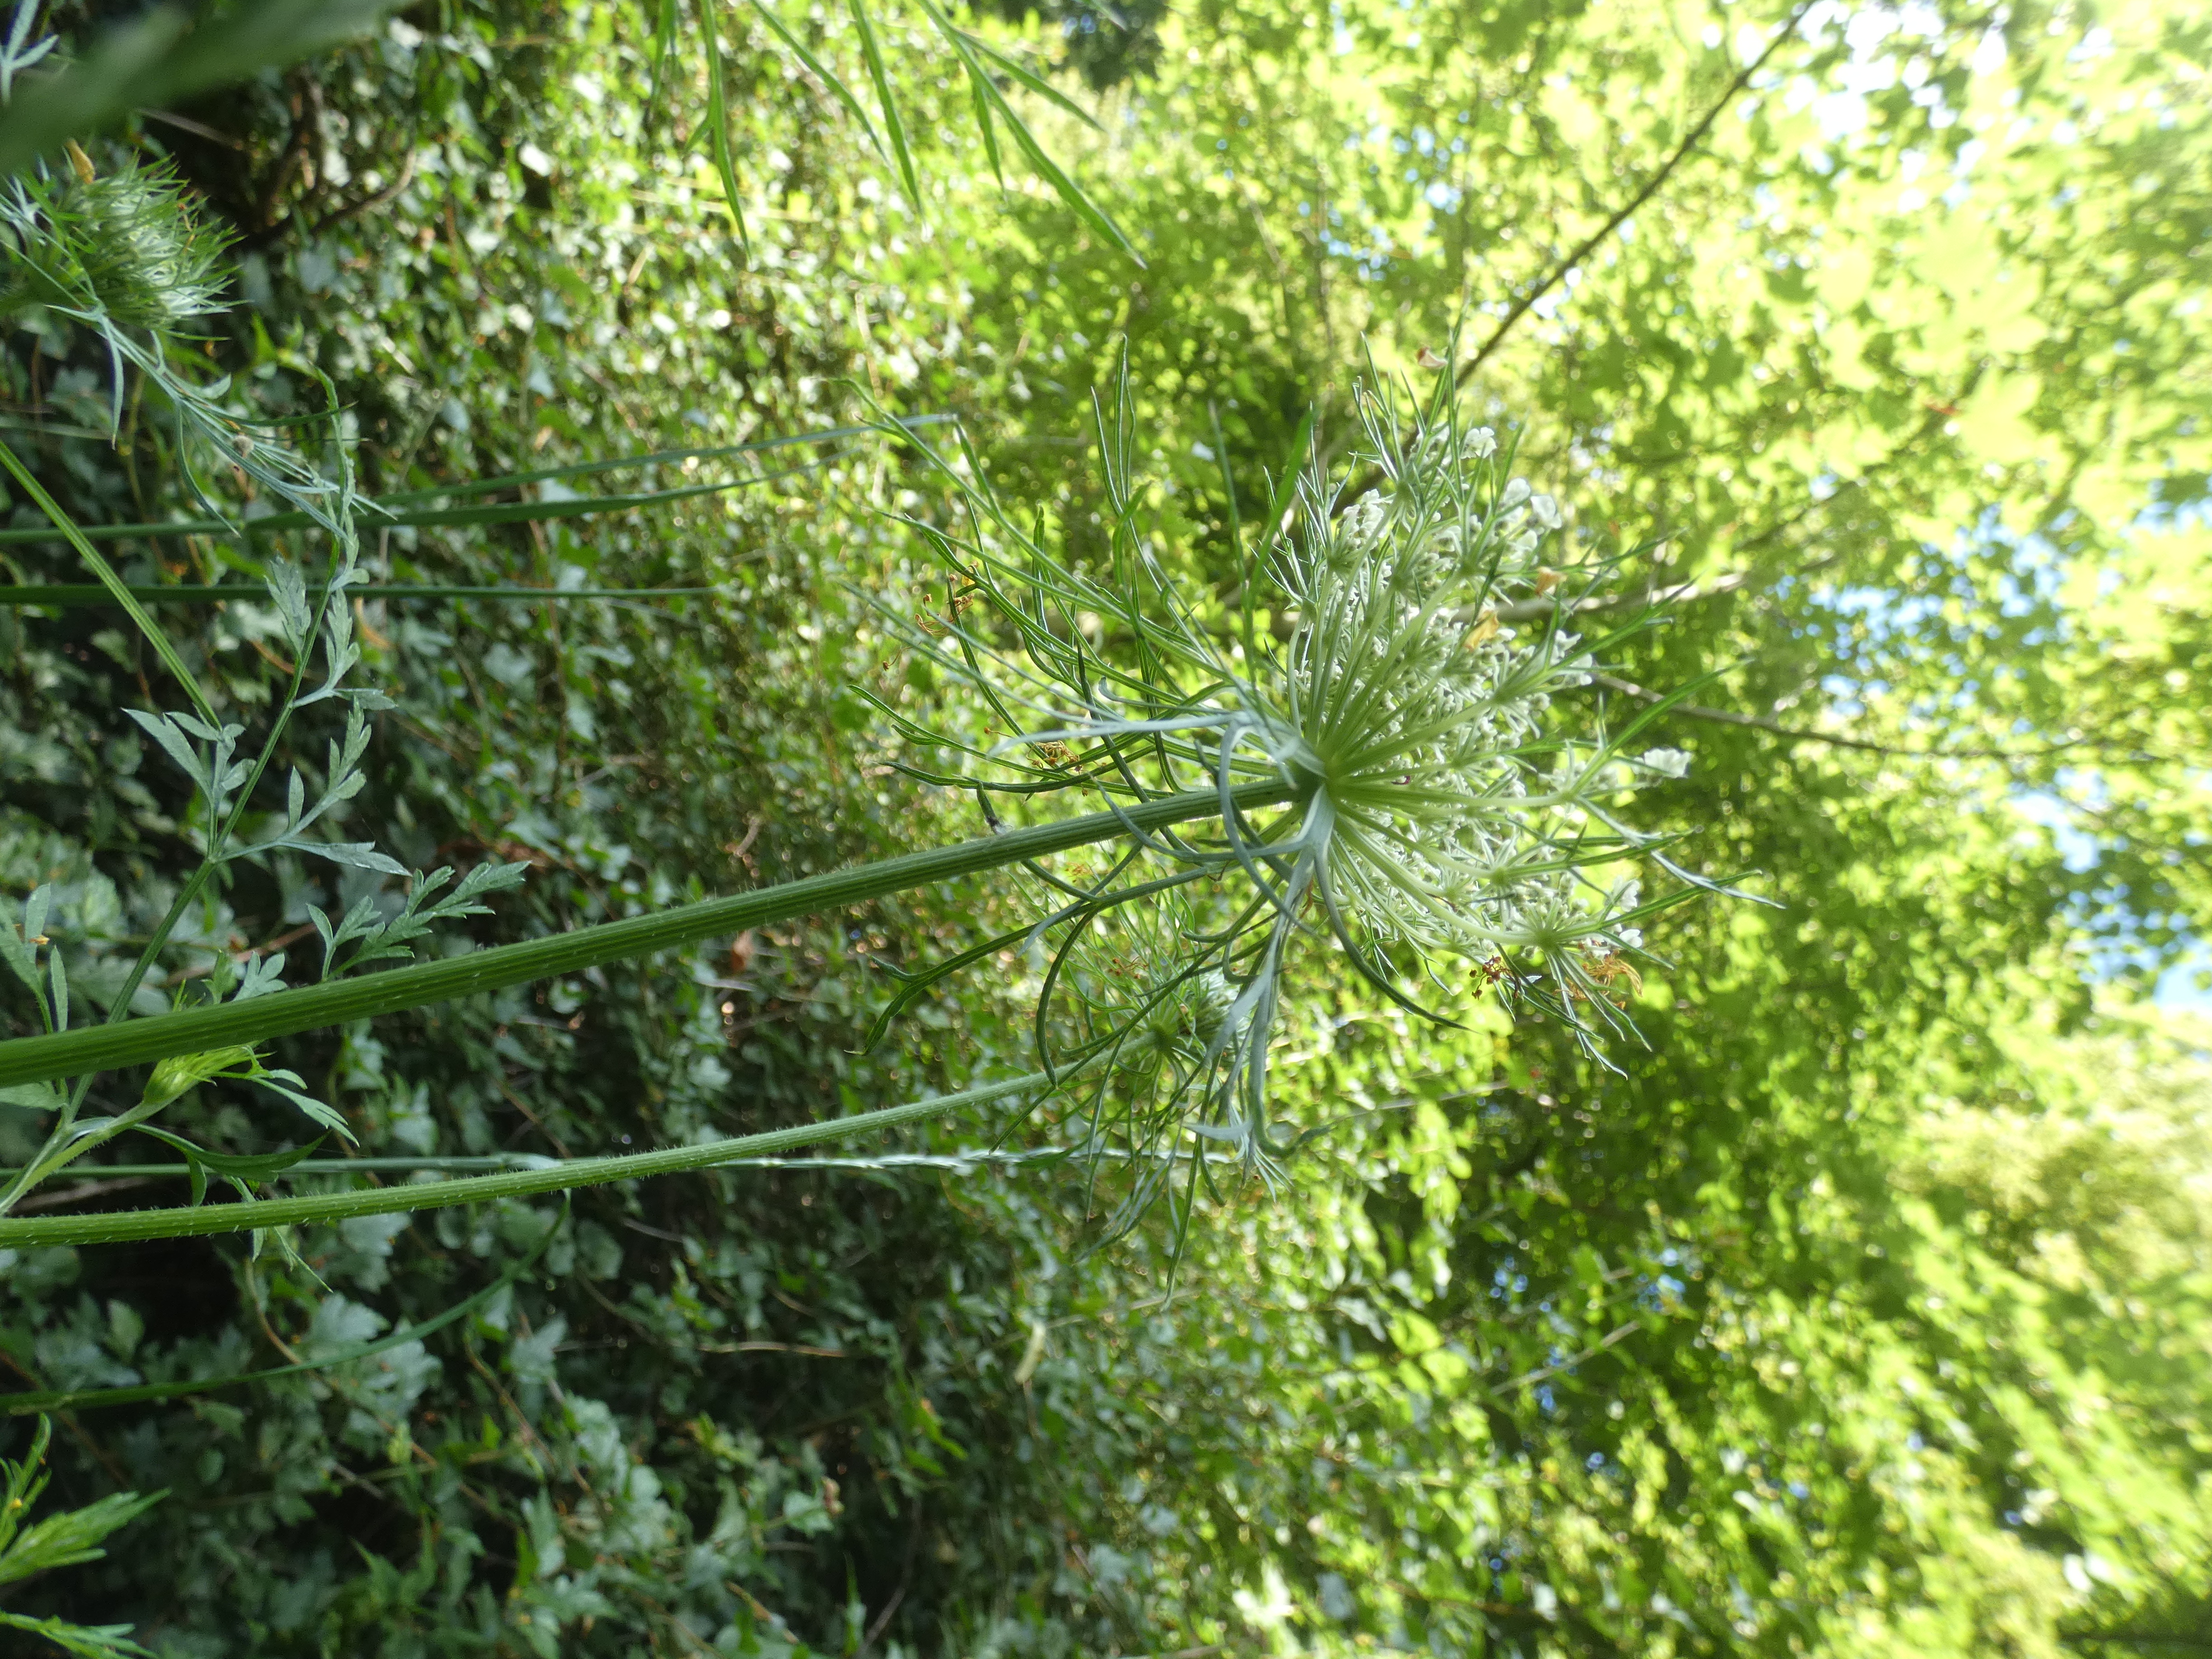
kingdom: Plantae
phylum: Tracheophyta
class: Magnoliopsida
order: Apiales
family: Apiaceae
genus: Daucus
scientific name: Daucus carota
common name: Vild gulerod
